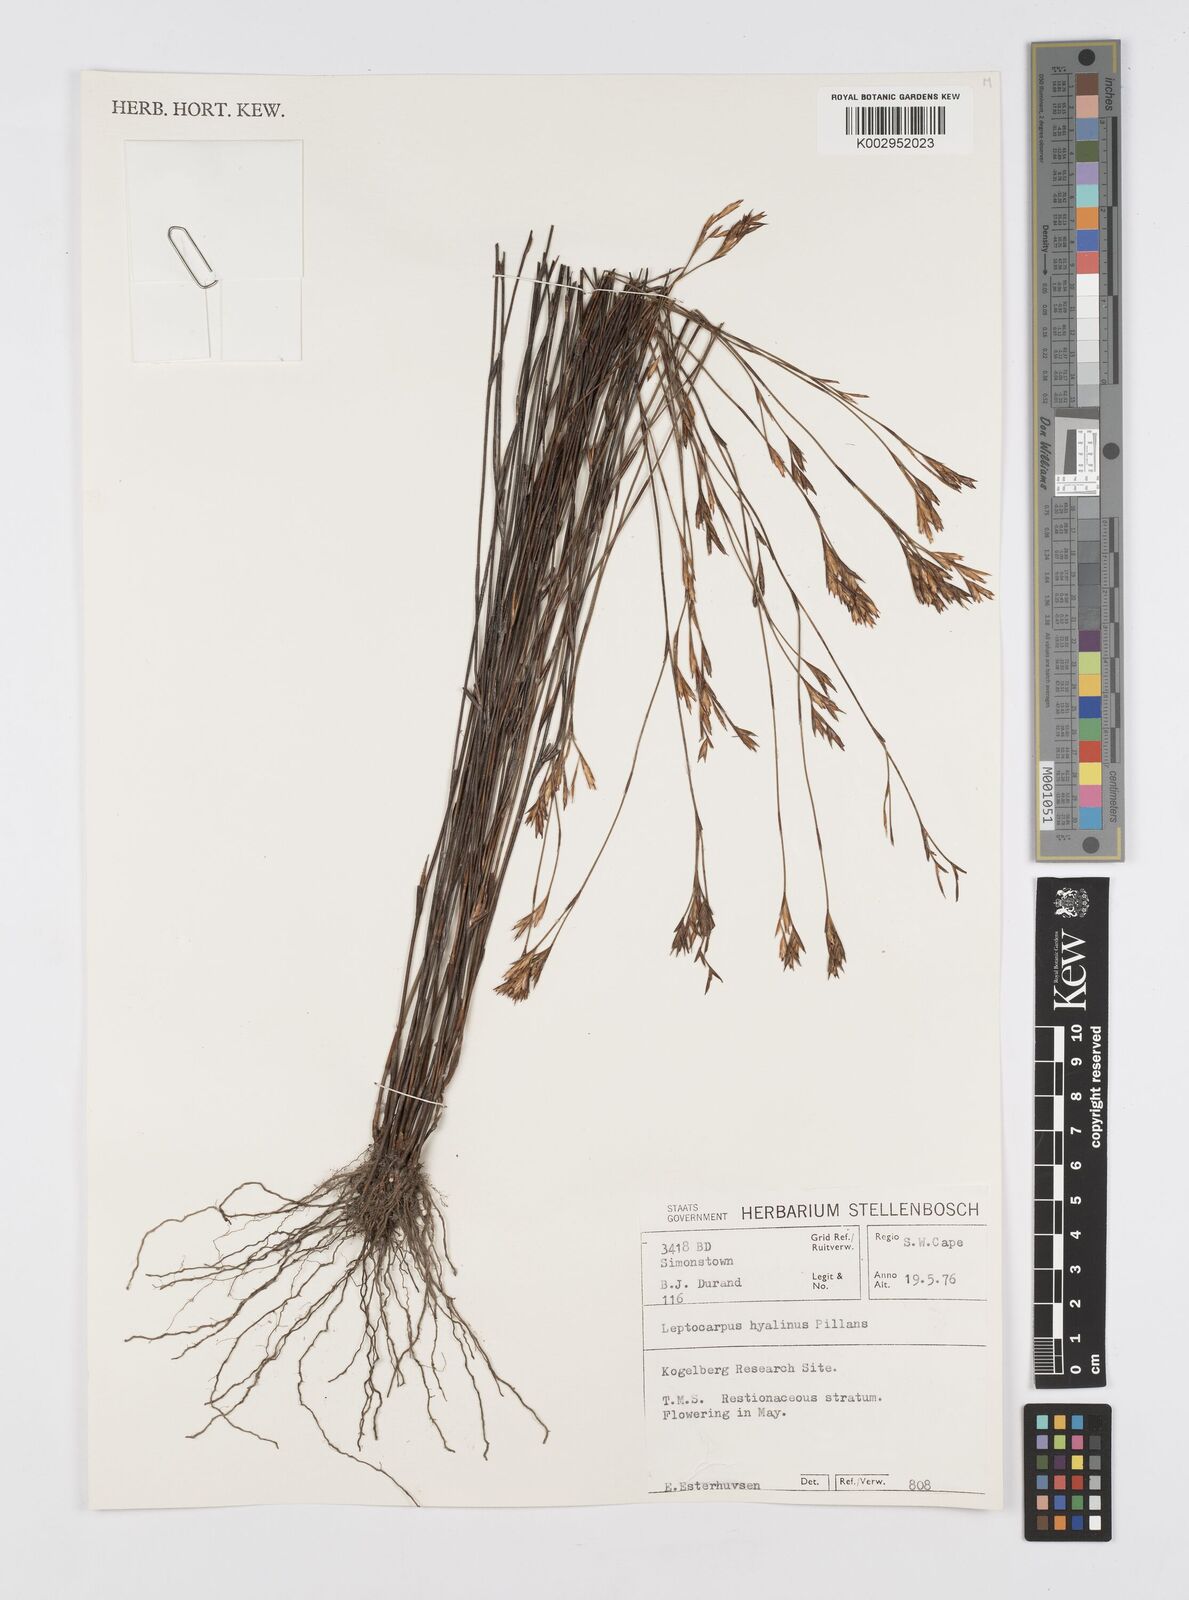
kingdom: Plantae
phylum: Tracheophyta
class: Liliopsida
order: Poales
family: Restionaceae
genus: Restio
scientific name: Restio hyalinus
